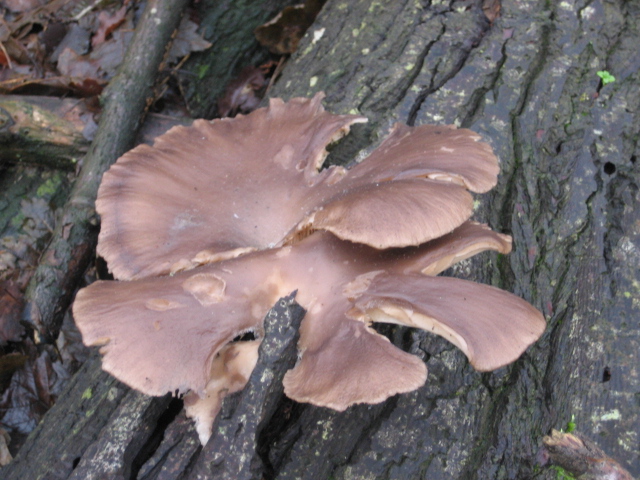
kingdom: Fungi
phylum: Basidiomycota
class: Agaricomycetes
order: Agaricales
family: Pleurotaceae
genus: Pleurotus
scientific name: Pleurotus ostreatus
